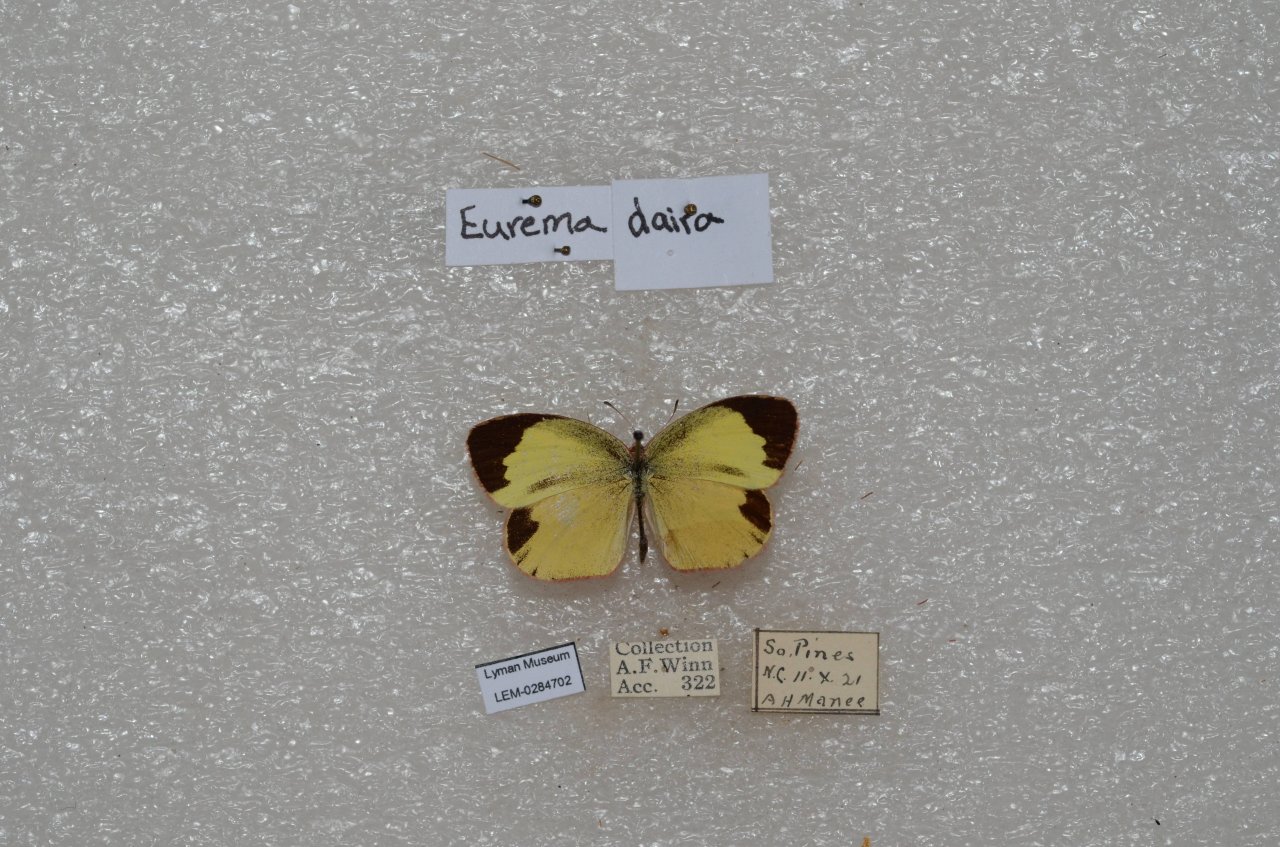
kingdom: Animalia
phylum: Arthropoda
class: Insecta
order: Lepidoptera
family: Pieridae
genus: Eurema
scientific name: Eurema daira
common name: Barred Yellow
